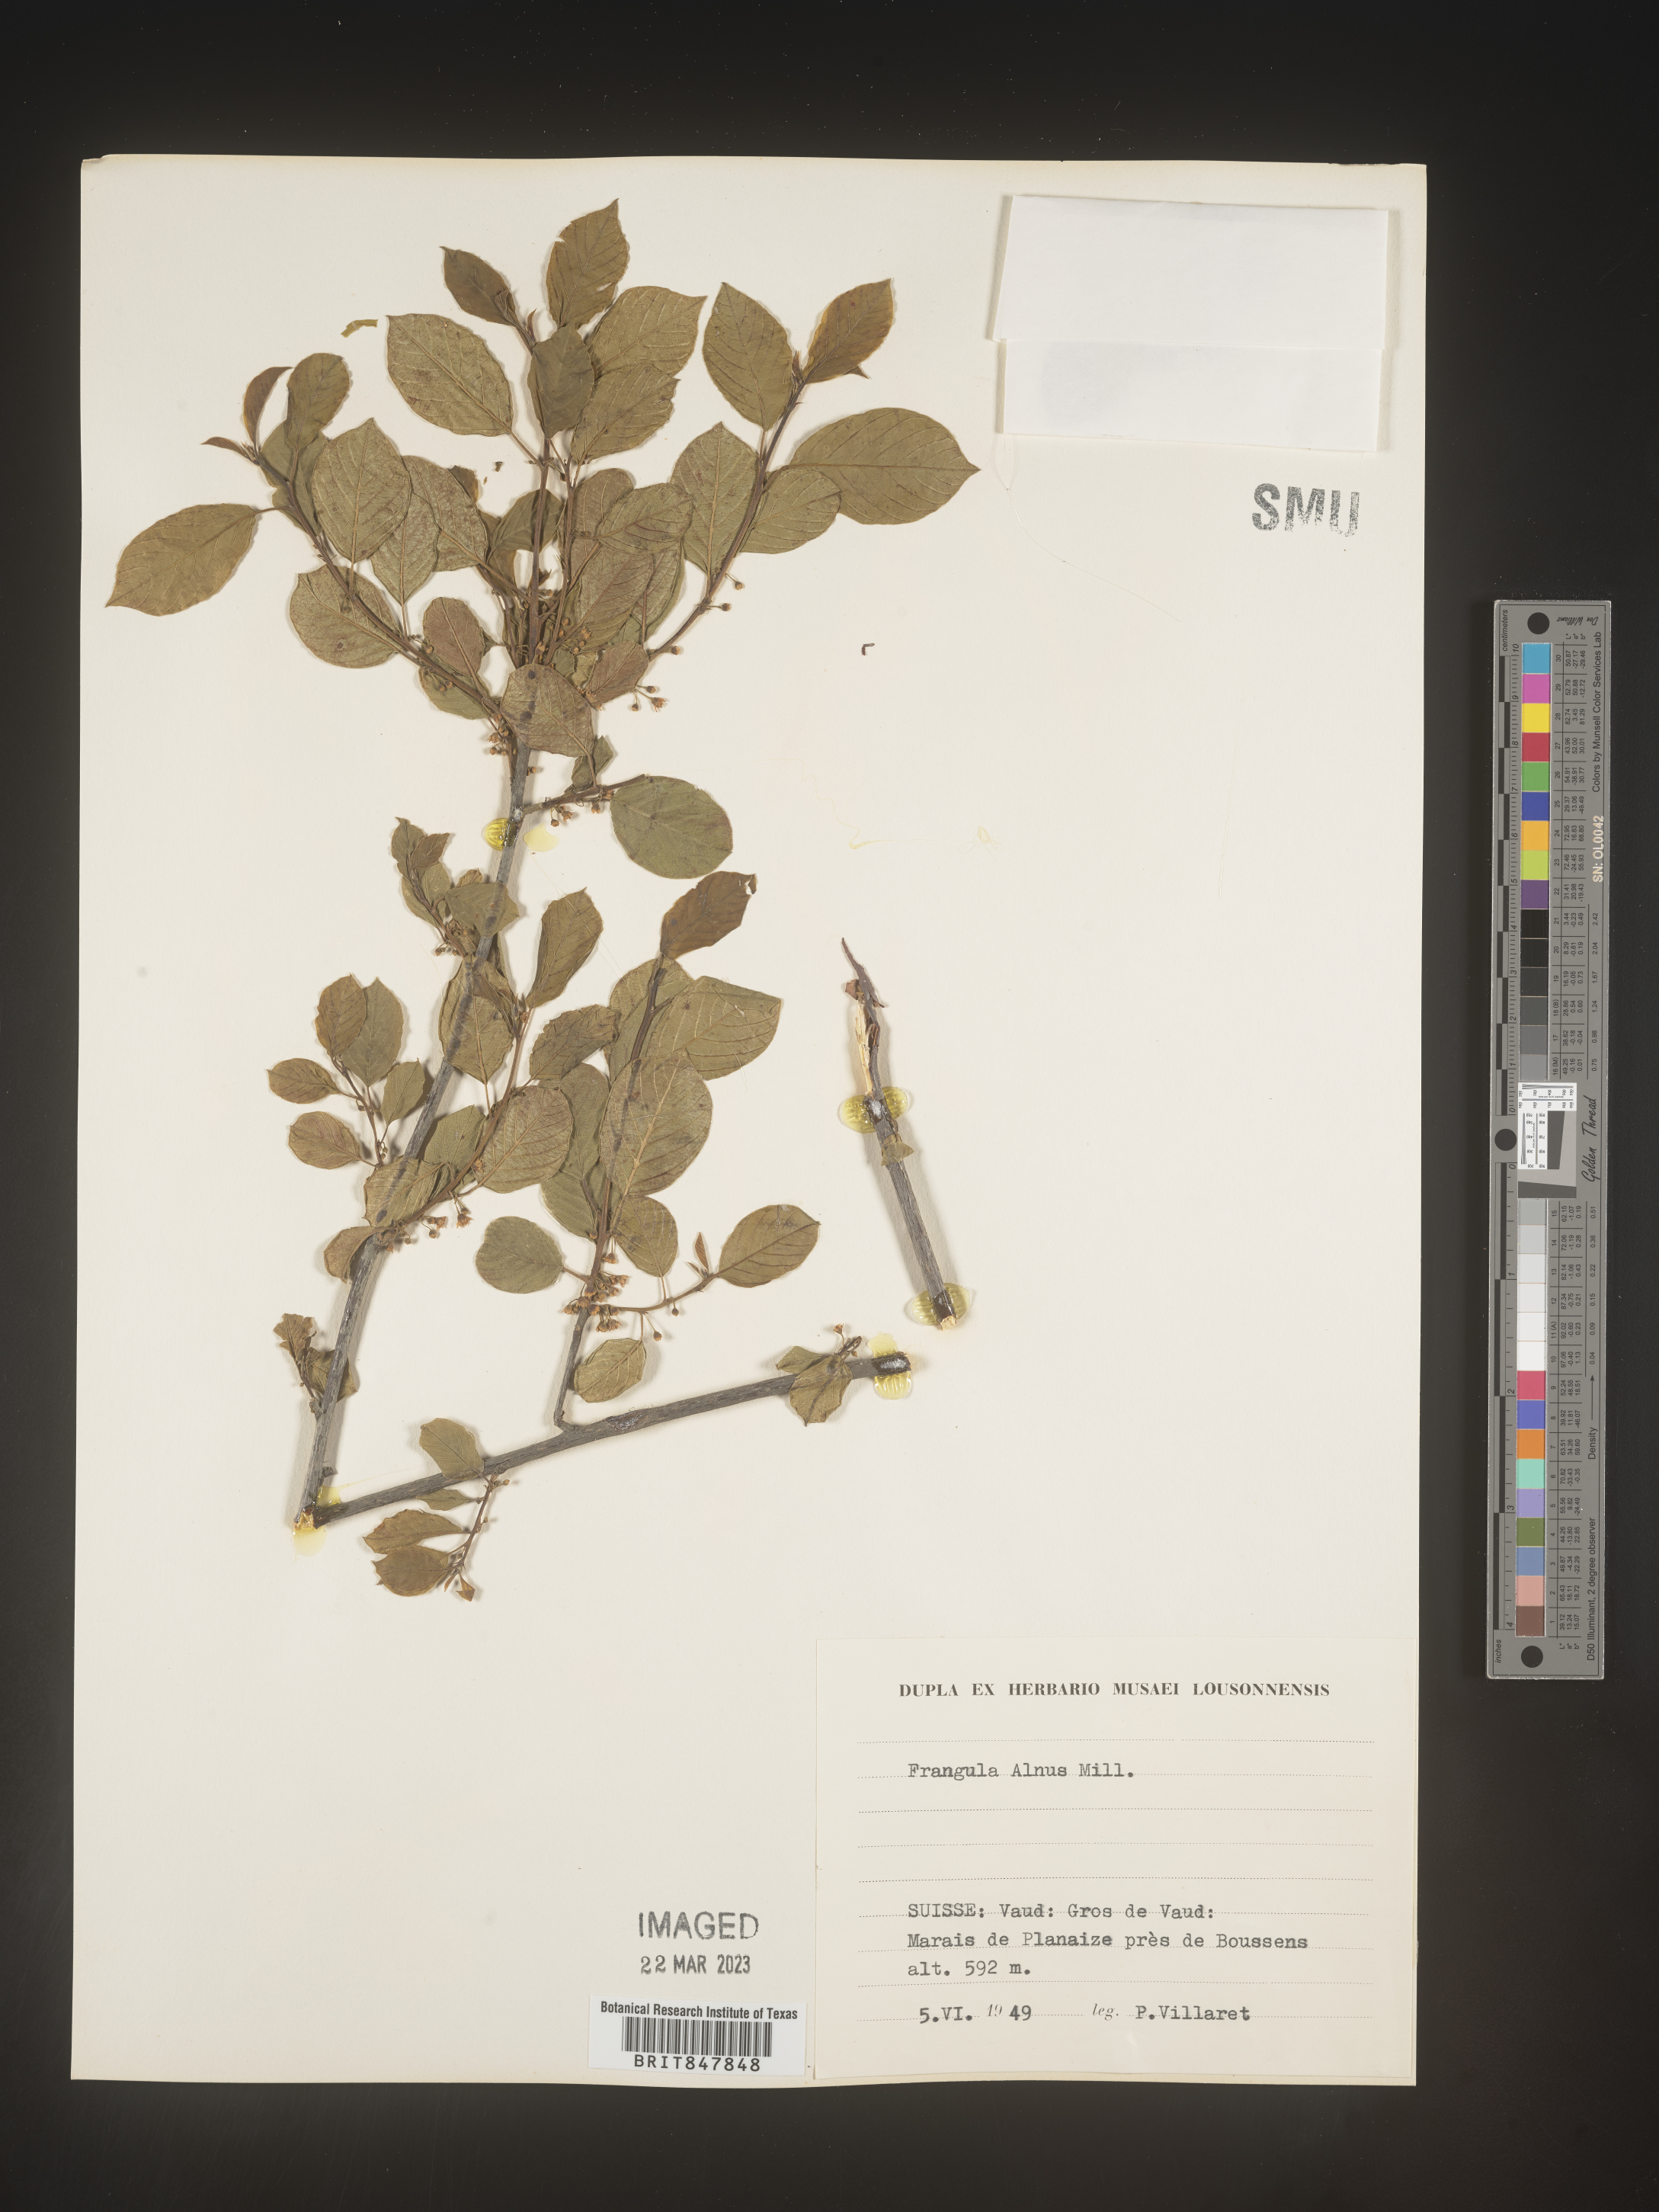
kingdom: Plantae
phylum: Tracheophyta
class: Magnoliopsida
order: Rosales
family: Rhamnaceae
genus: Rhamnus
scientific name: Rhamnus
